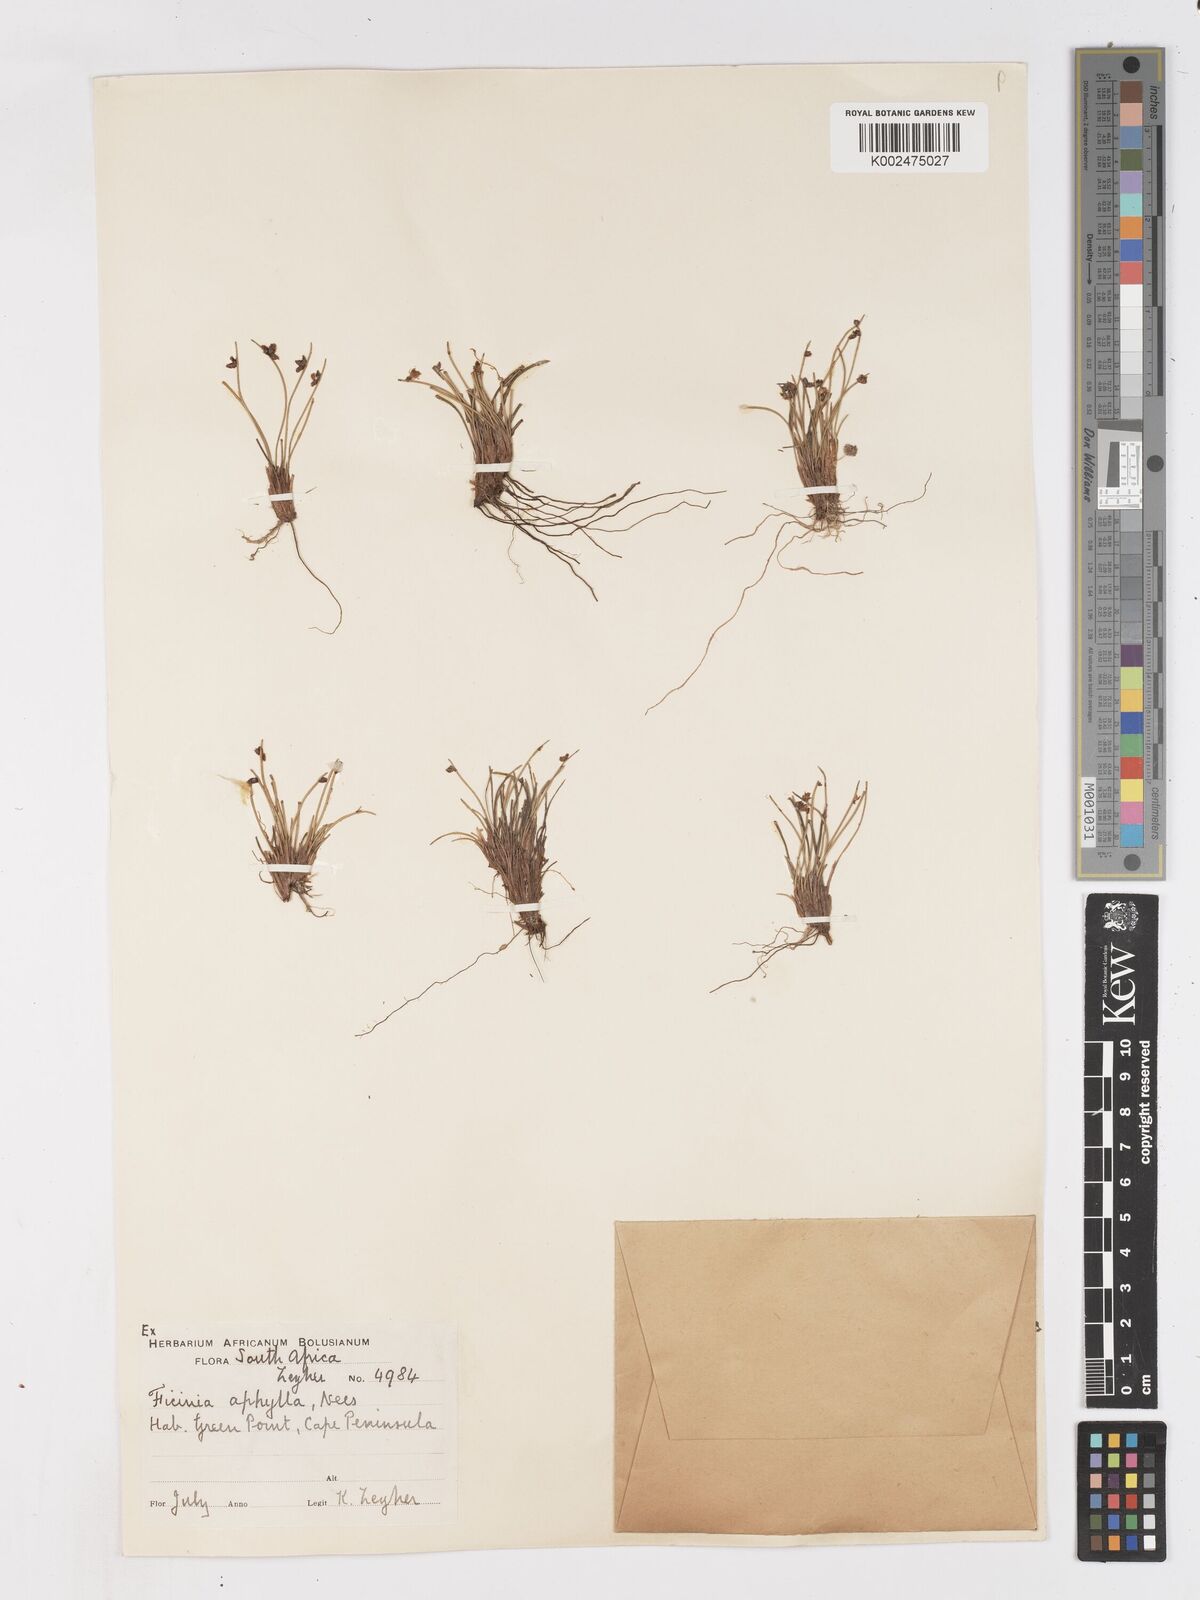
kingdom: Plantae
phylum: Tracheophyta
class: Liliopsida
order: Poales
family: Cyperaceae
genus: Ficinia
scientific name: Ficinia lateralis
